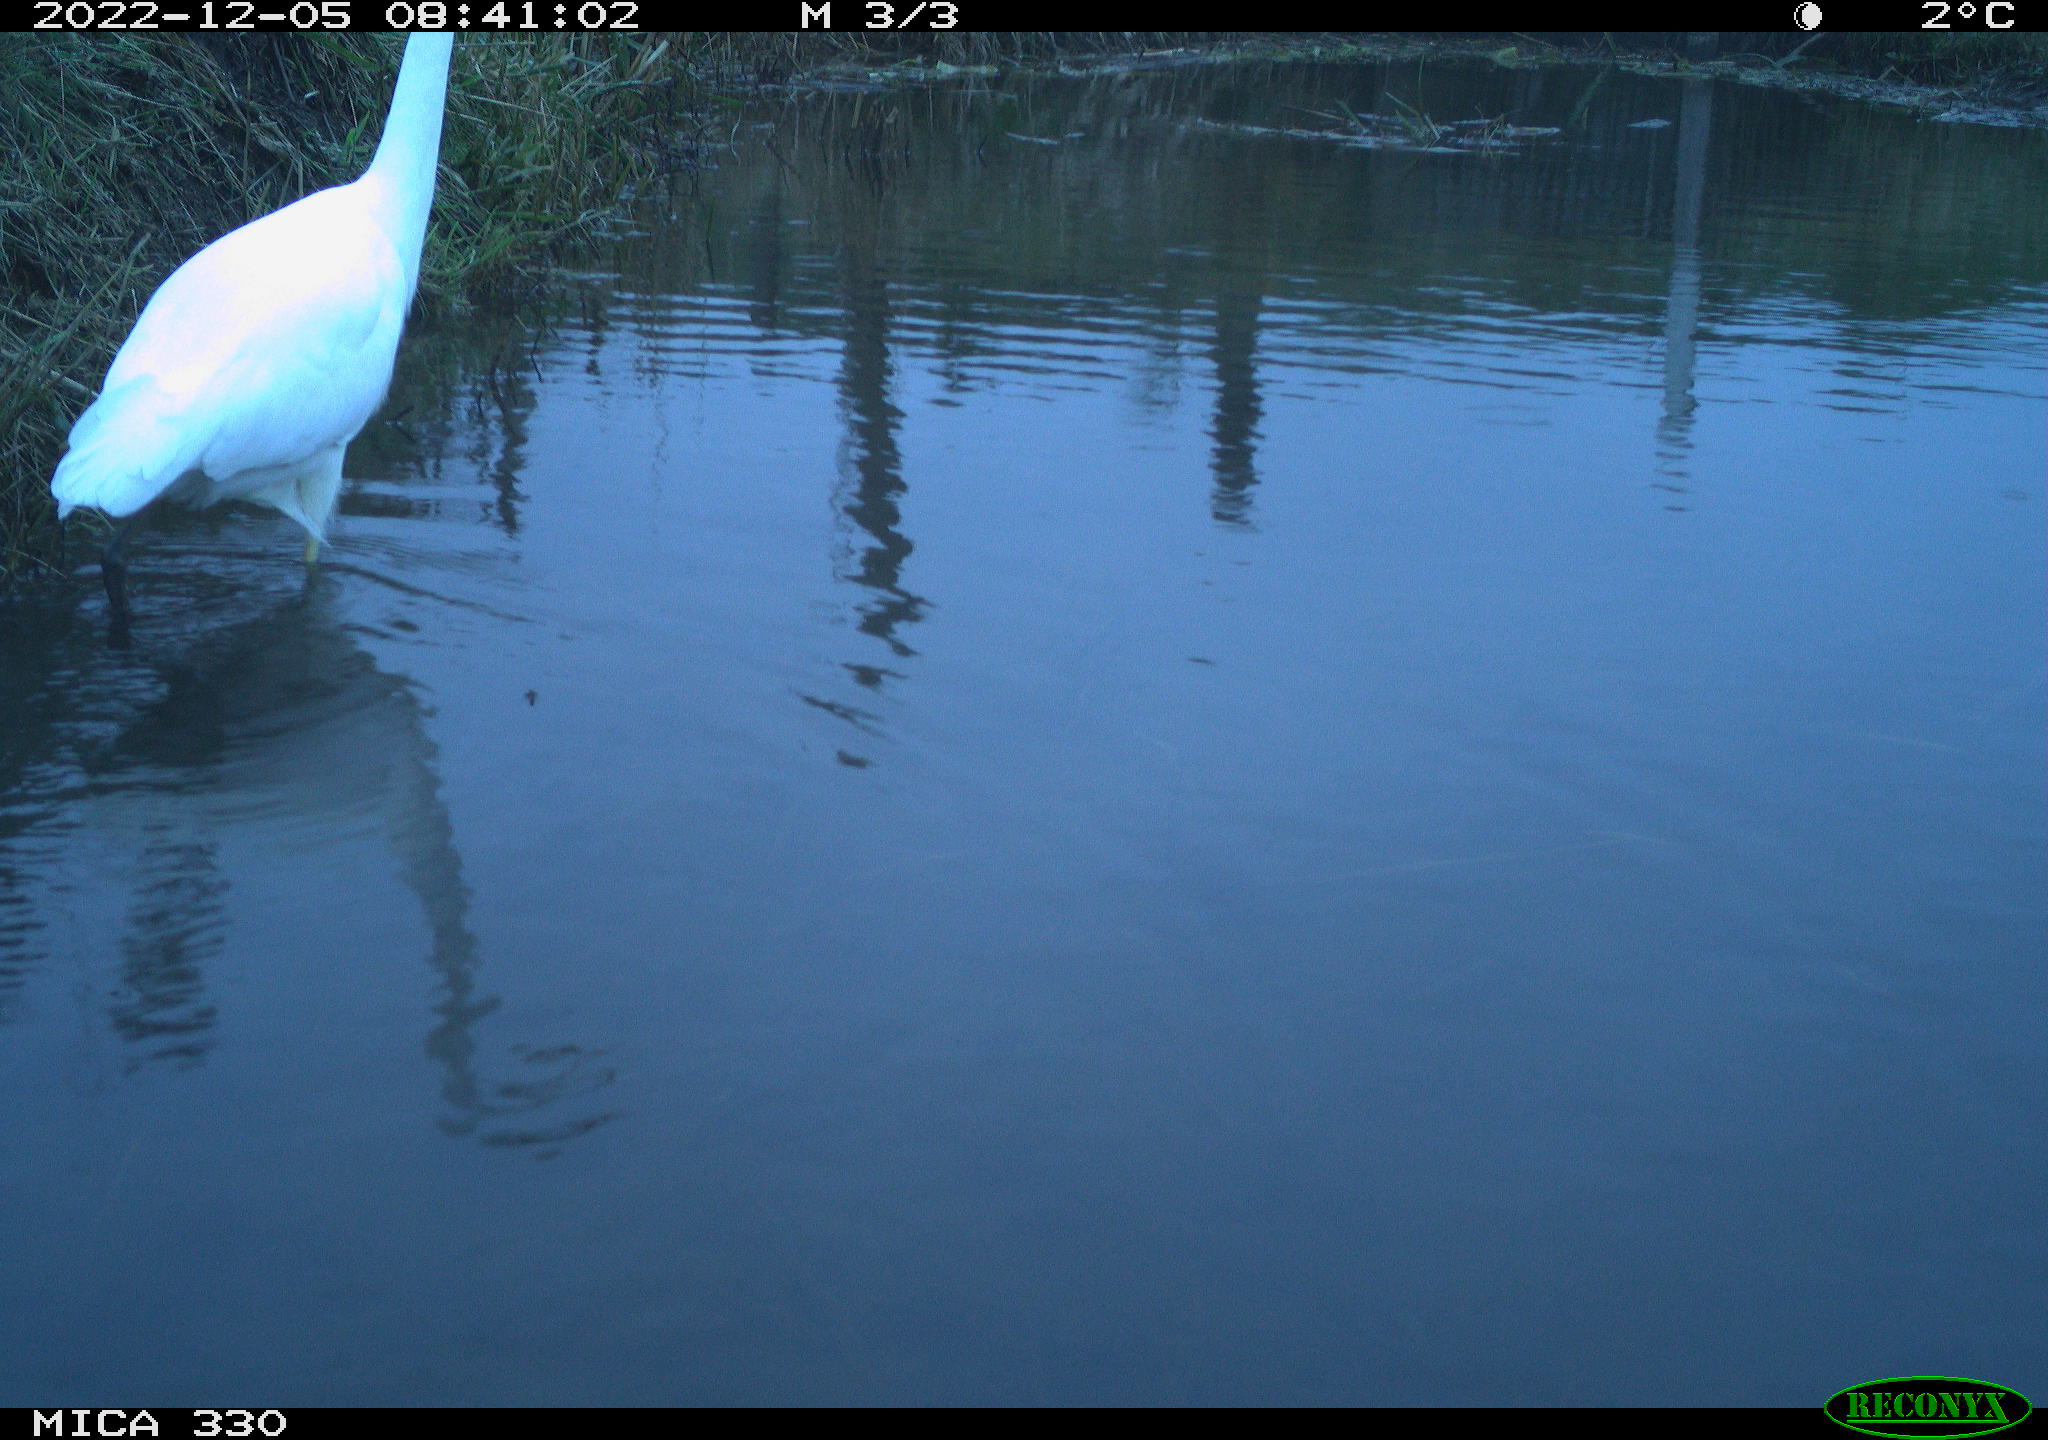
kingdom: Animalia
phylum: Chordata
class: Aves
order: Pelecaniformes
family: Ardeidae
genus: Ardea
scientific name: Ardea alba
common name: Great egret
